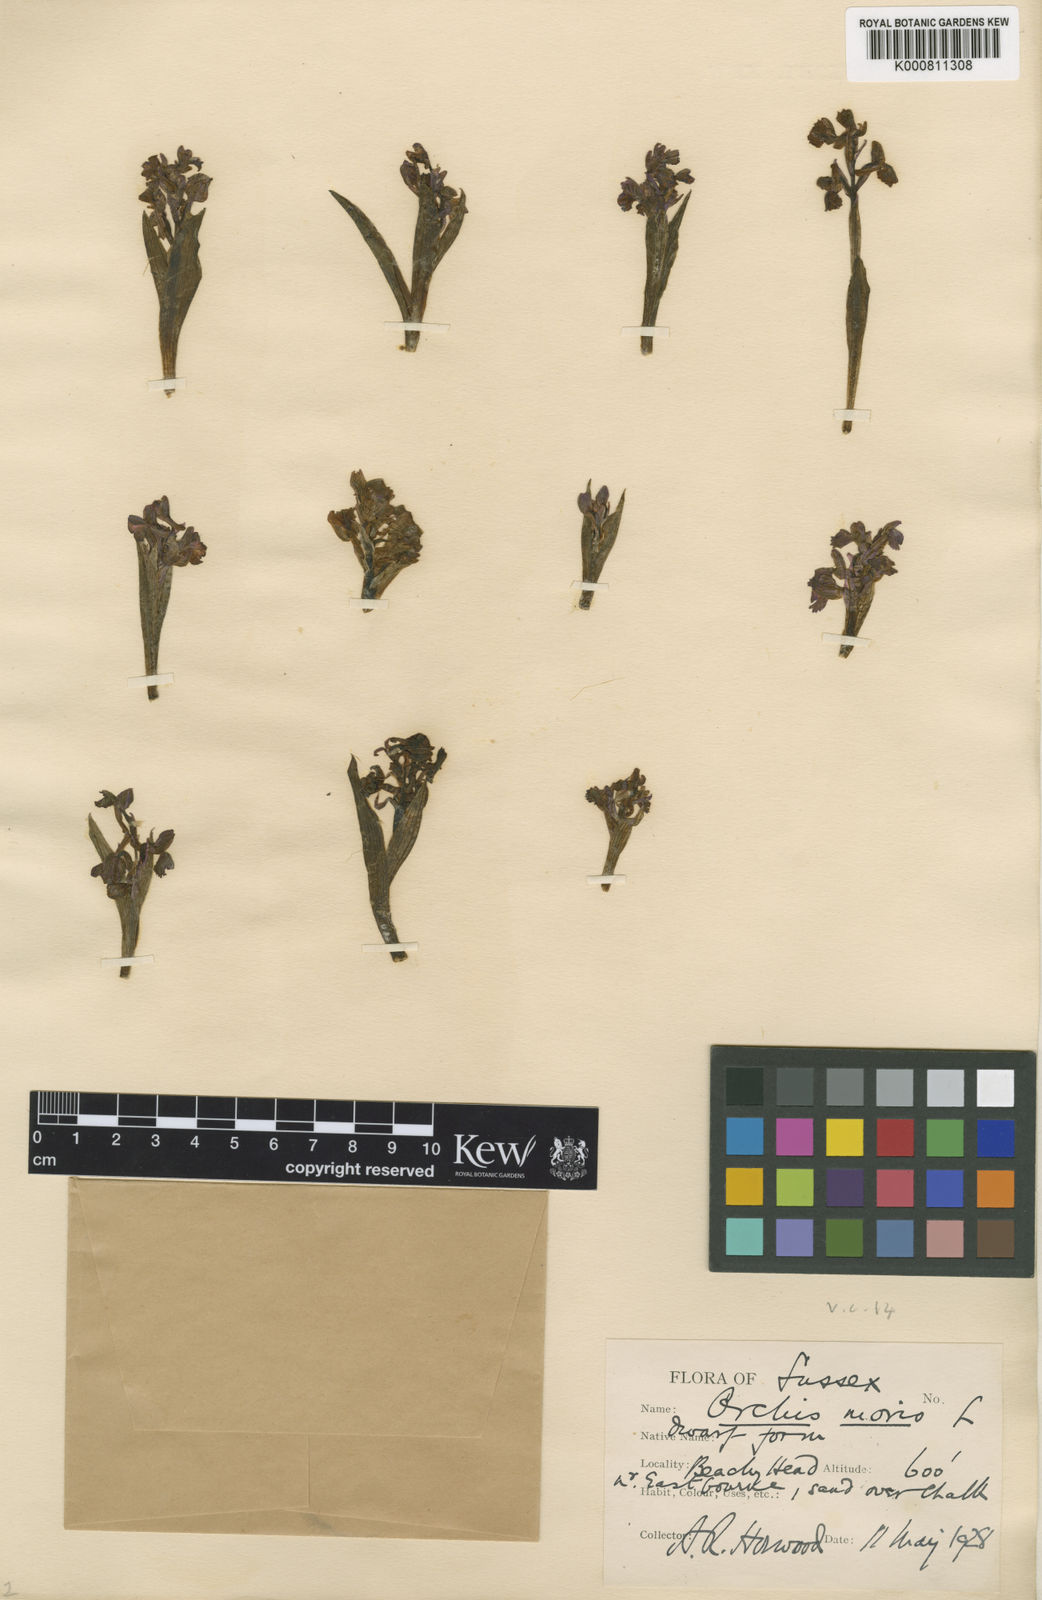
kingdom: Plantae
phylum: Tracheophyta
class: Liliopsida
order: Asparagales
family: Orchidaceae
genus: Anacamptis
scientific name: Anacamptis morio
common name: Green-winged orchid
